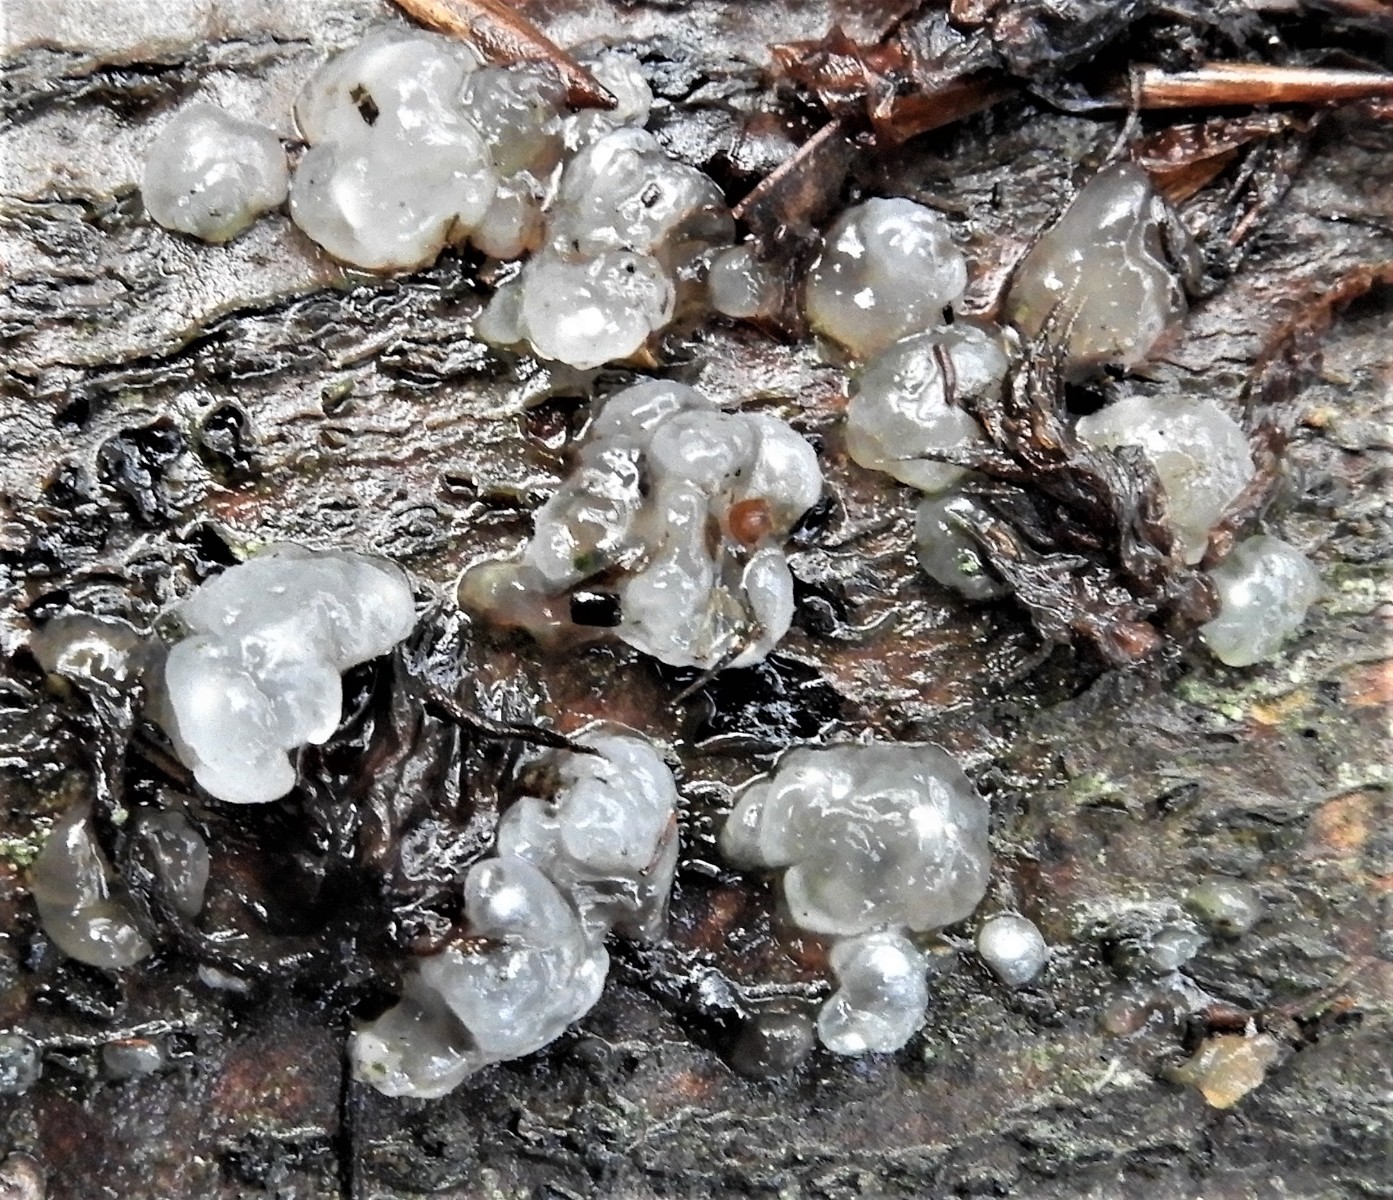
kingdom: Fungi
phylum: Basidiomycota
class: Agaricomycetes
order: Auriculariales
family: Hyaloriaceae
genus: Myxarium
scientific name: Myxarium nucleatum
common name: klar bævretop
